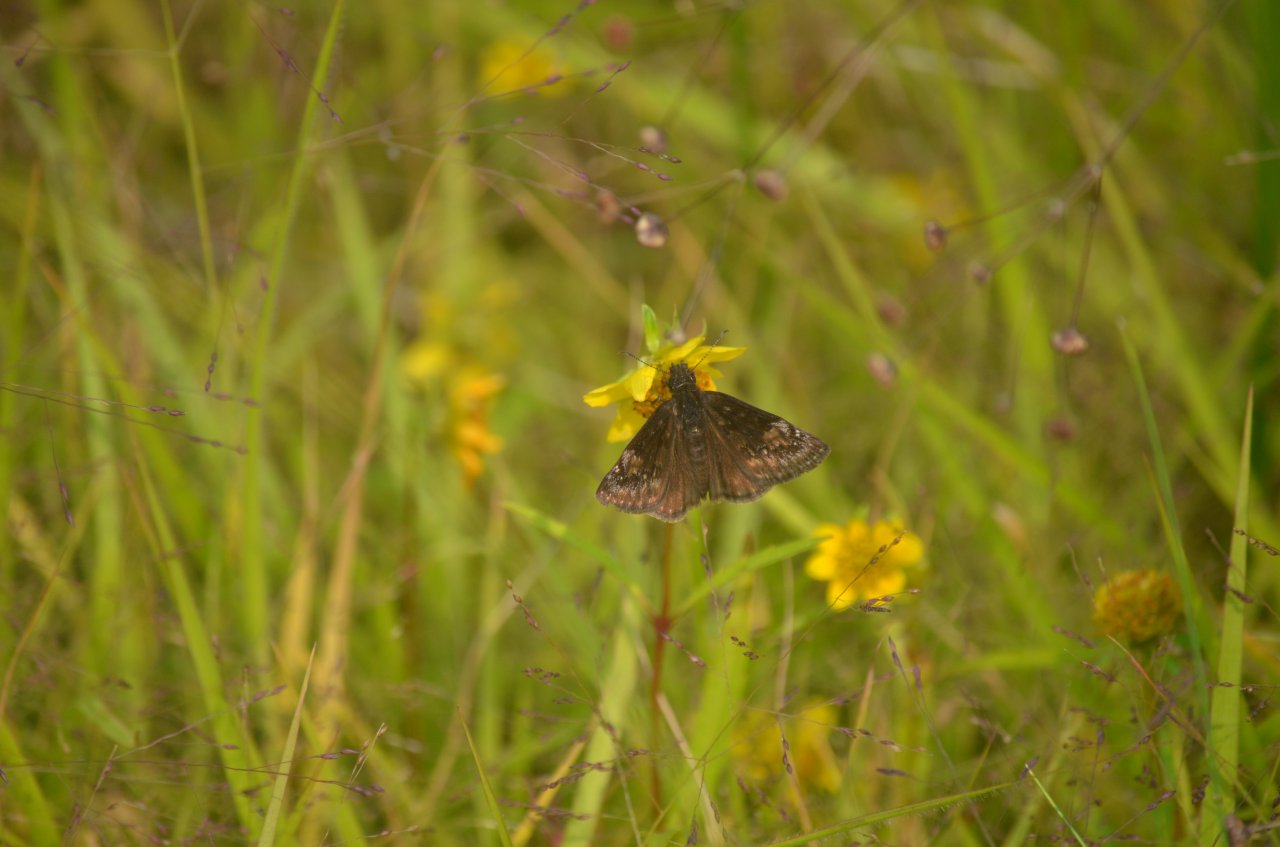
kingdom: Animalia
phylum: Arthropoda
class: Insecta
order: Lepidoptera
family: Hesperiidae
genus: Gesta
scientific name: Gesta
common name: Wild Indigo Duskywing
